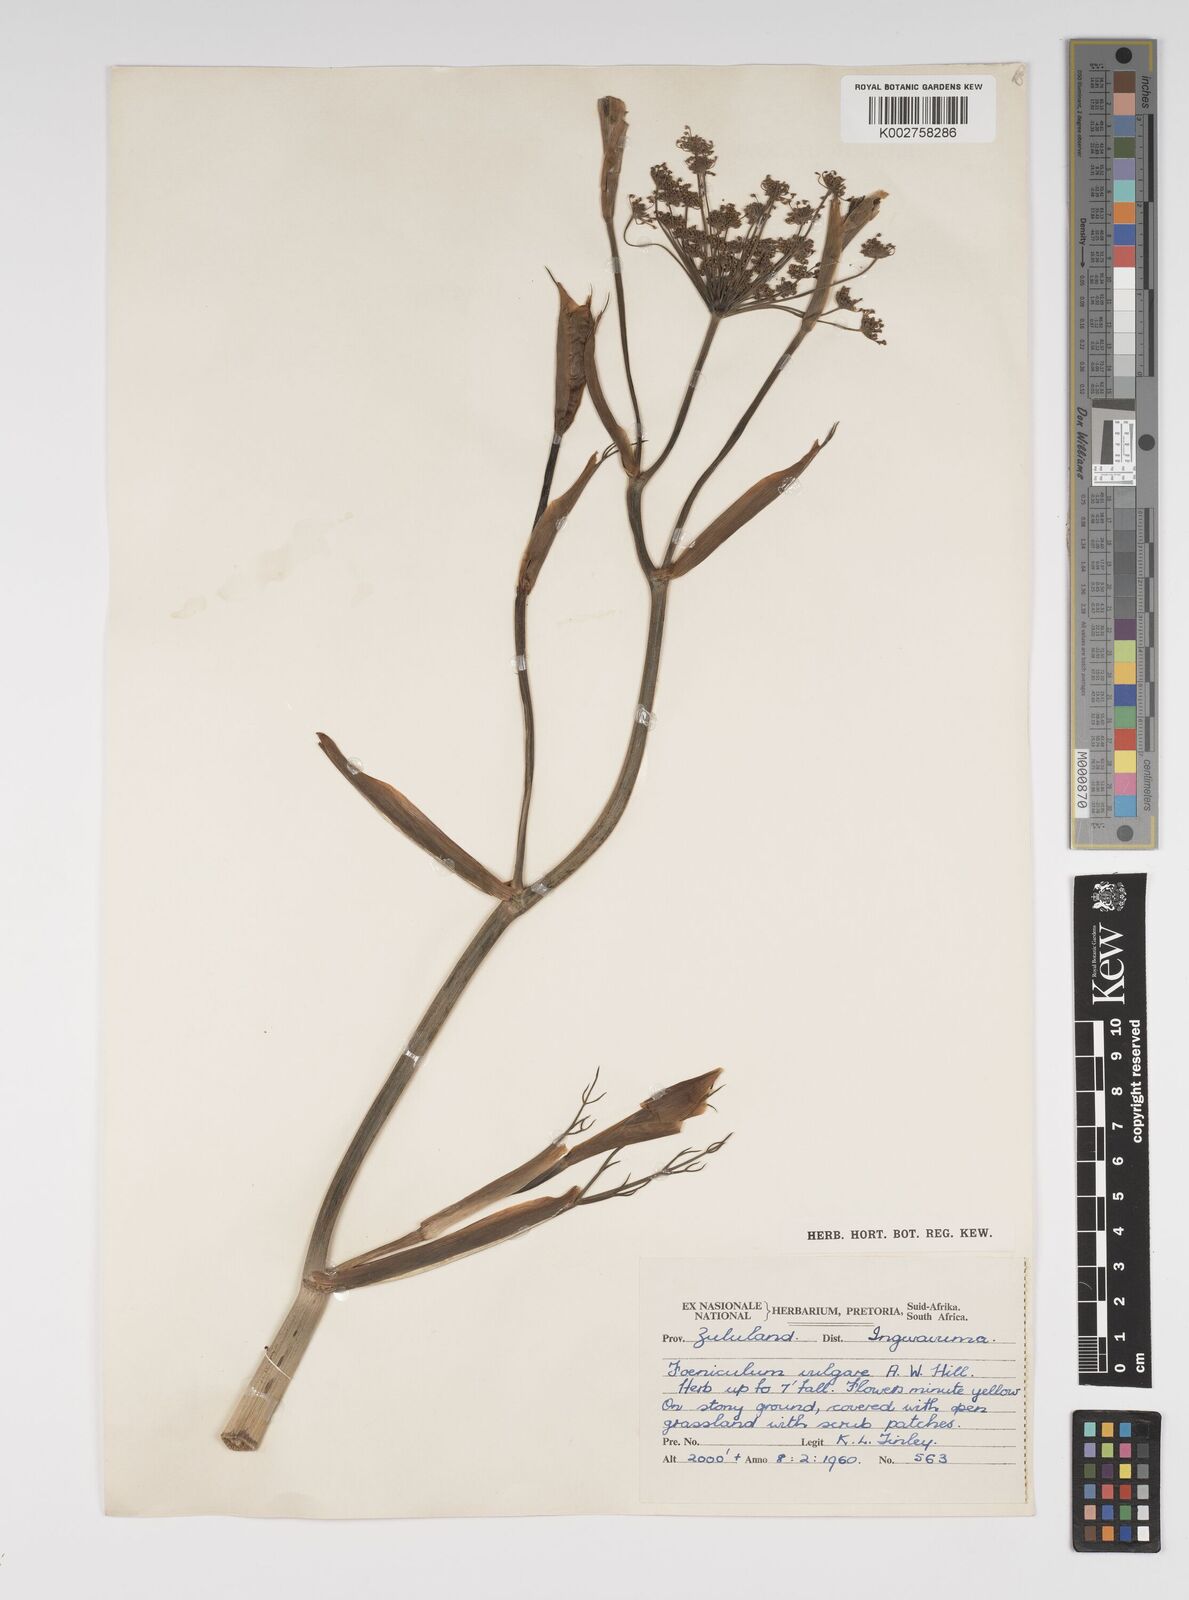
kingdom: Plantae
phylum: Tracheophyta
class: Magnoliopsida
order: Apiales
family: Apiaceae
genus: Foeniculum
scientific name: Foeniculum vulgare
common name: Fennel
